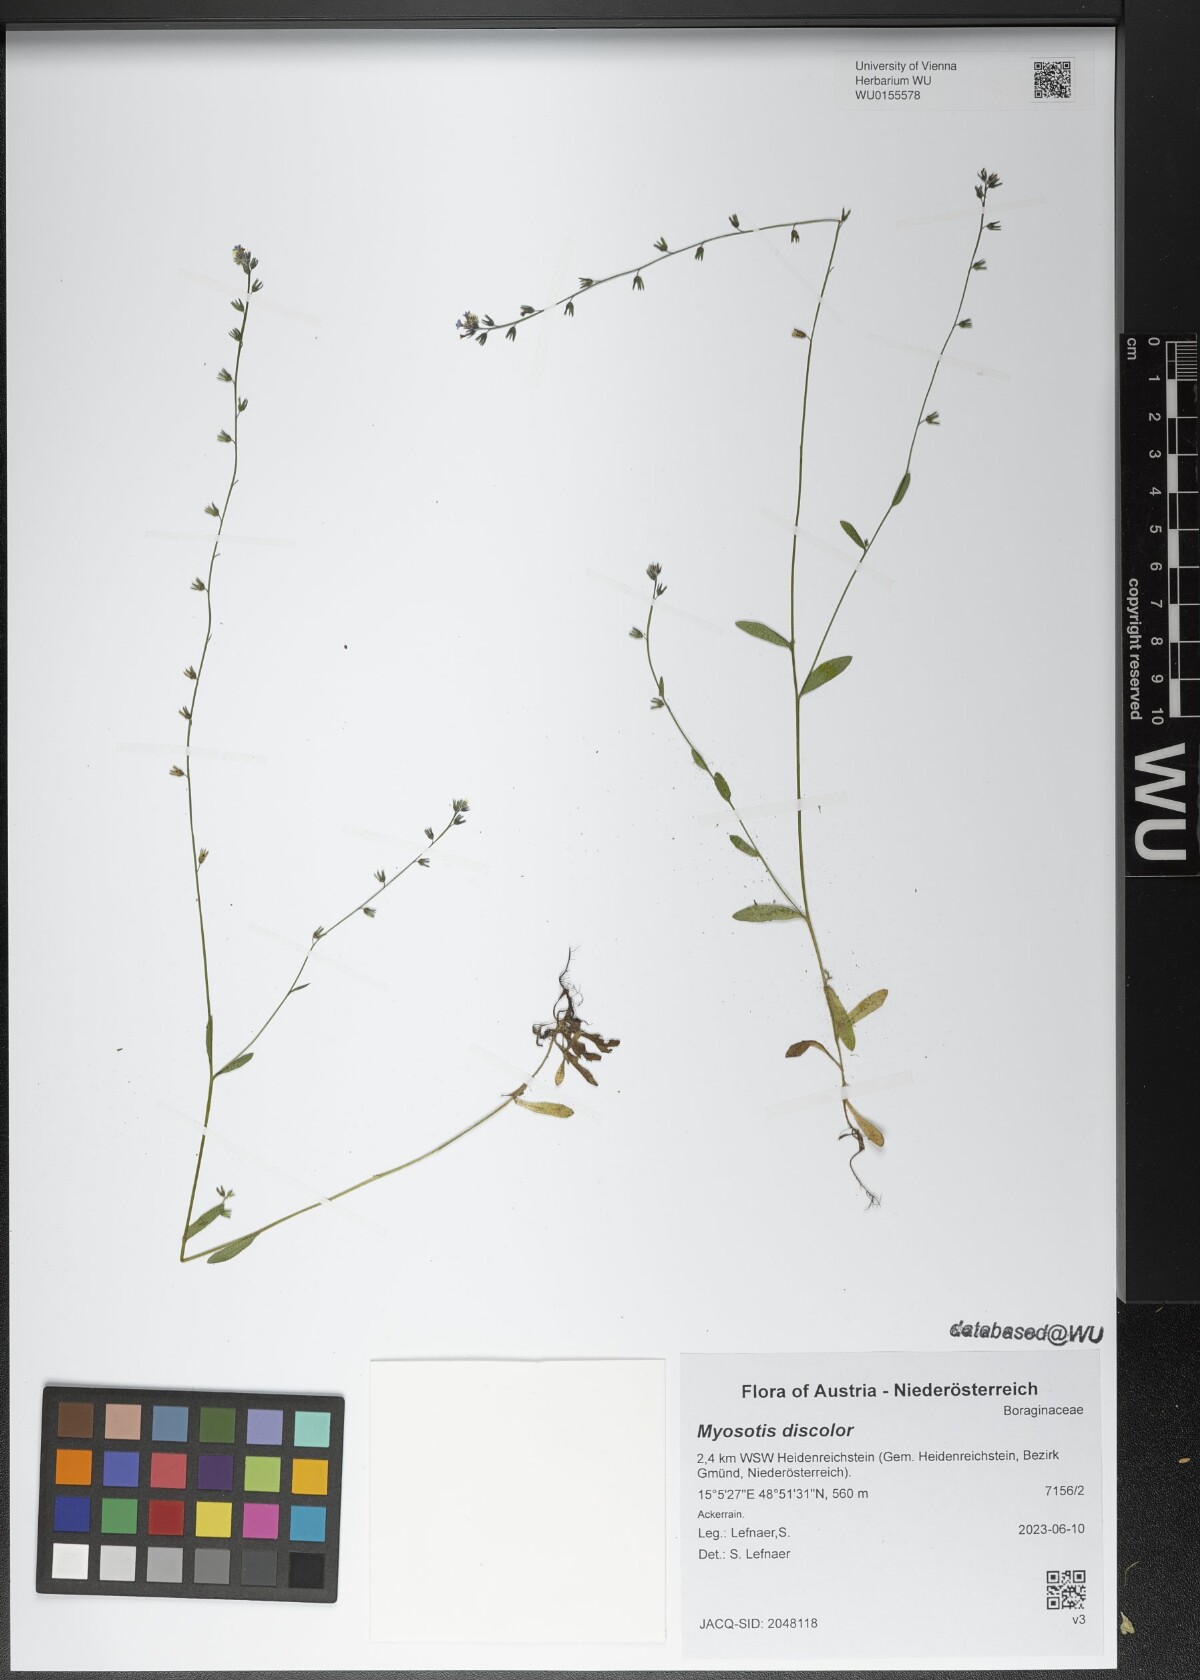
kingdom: Plantae
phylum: Tracheophyta
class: Magnoliopsida
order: Boraginales
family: Boraginaceae
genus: Myosotis
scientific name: Myosotis discolor
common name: Changing forget-me-not
